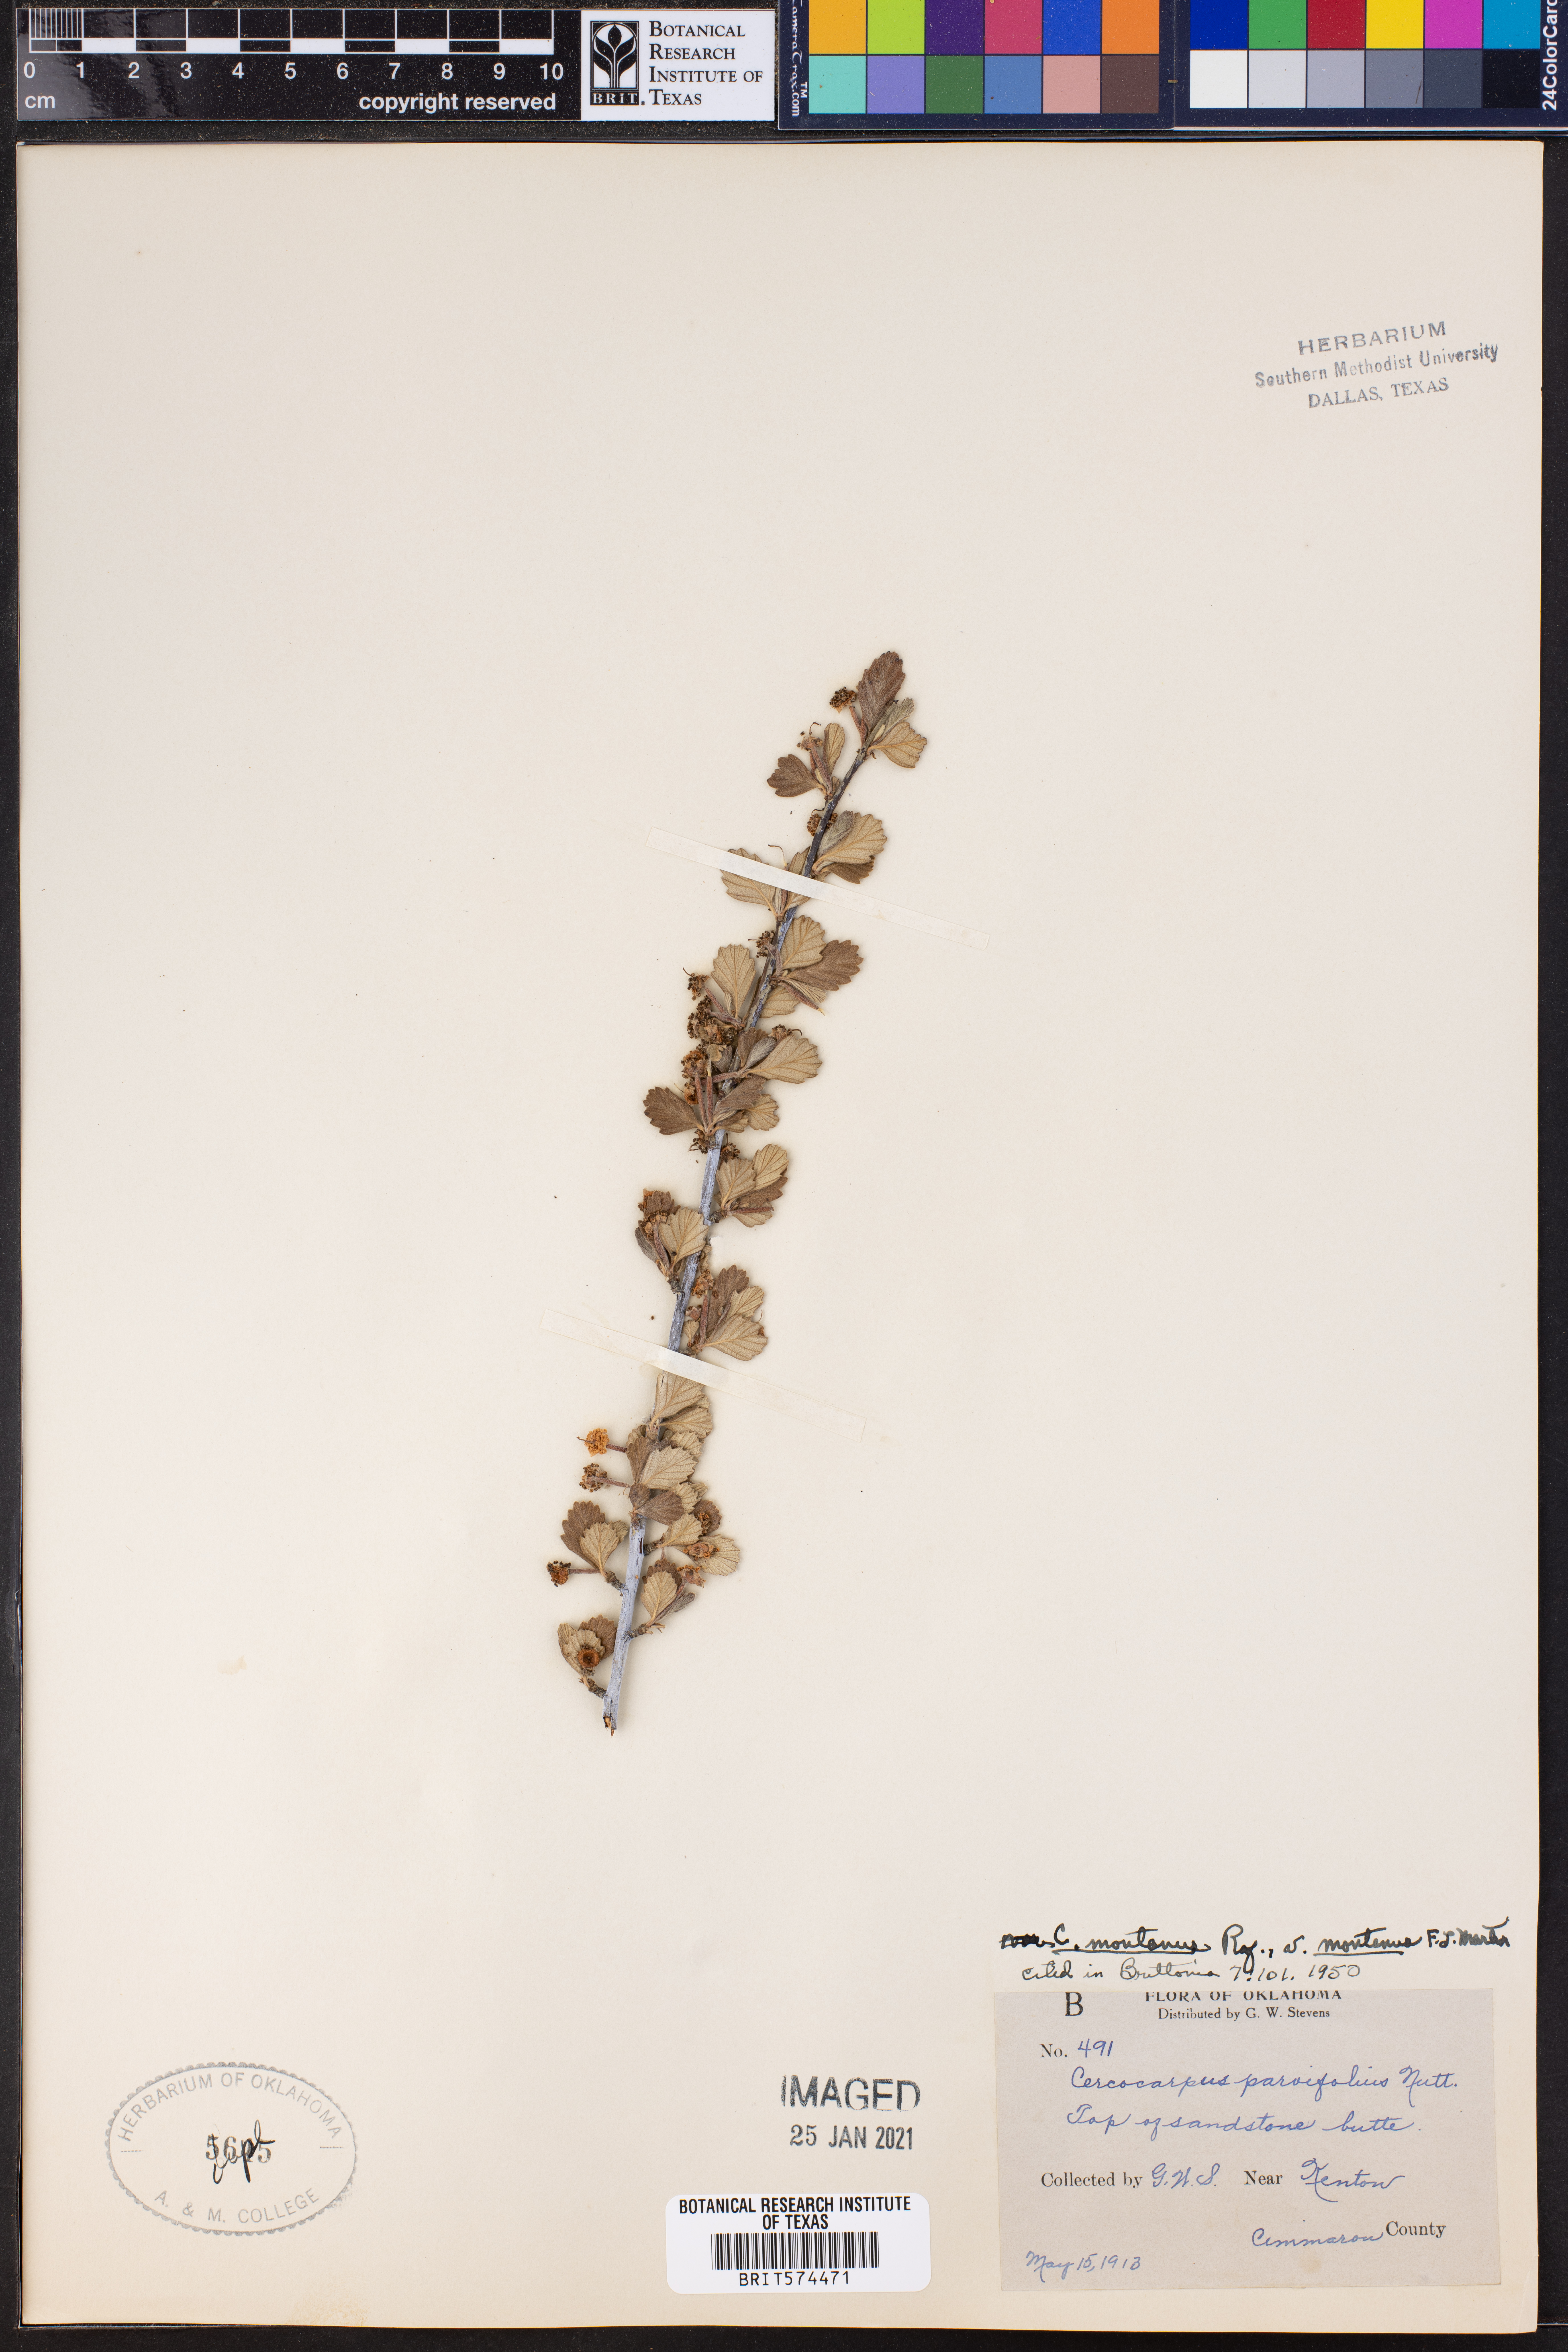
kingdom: Plantae
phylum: Tracheophyta
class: Magnoliopsida
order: Rosales
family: Rosaceae
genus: Cercocarpus
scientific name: Cercocarpus montanus
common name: Alder-leaf cercocarpus
